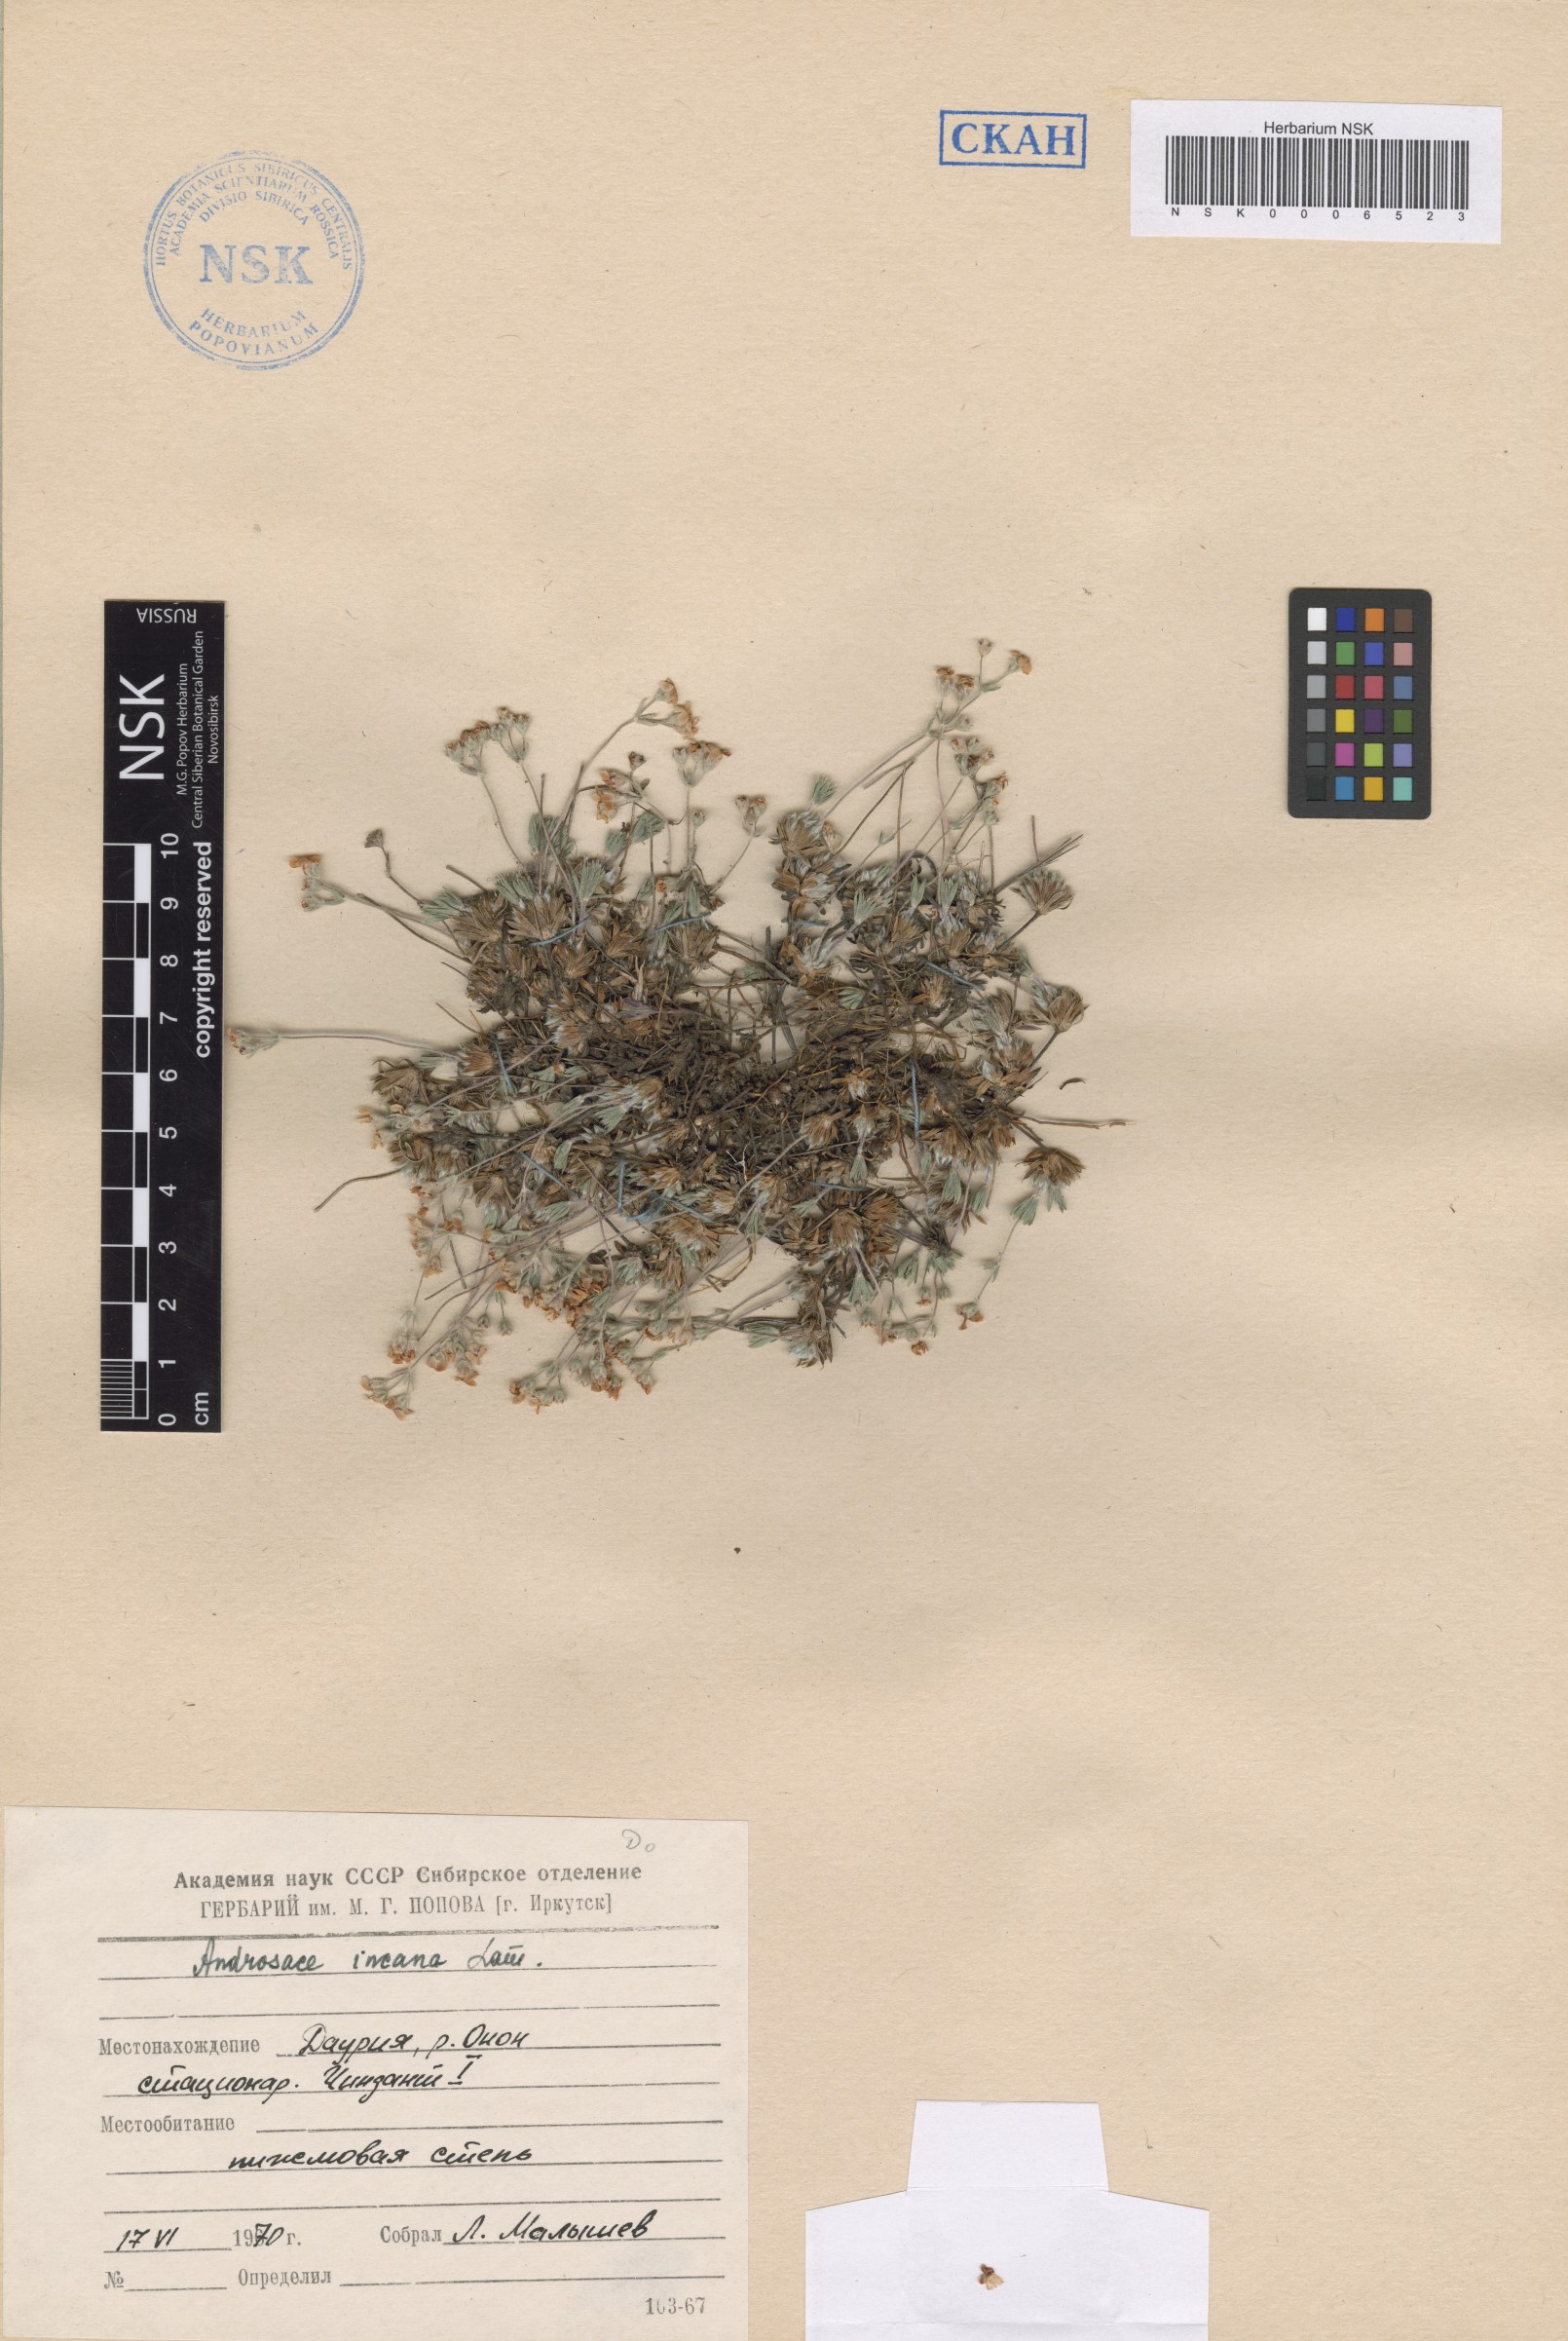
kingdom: Plantae
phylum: Tracheophyta
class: Magnoliopsida
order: Ericales
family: Primulaceae
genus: Androsace
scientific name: Androsace incana
